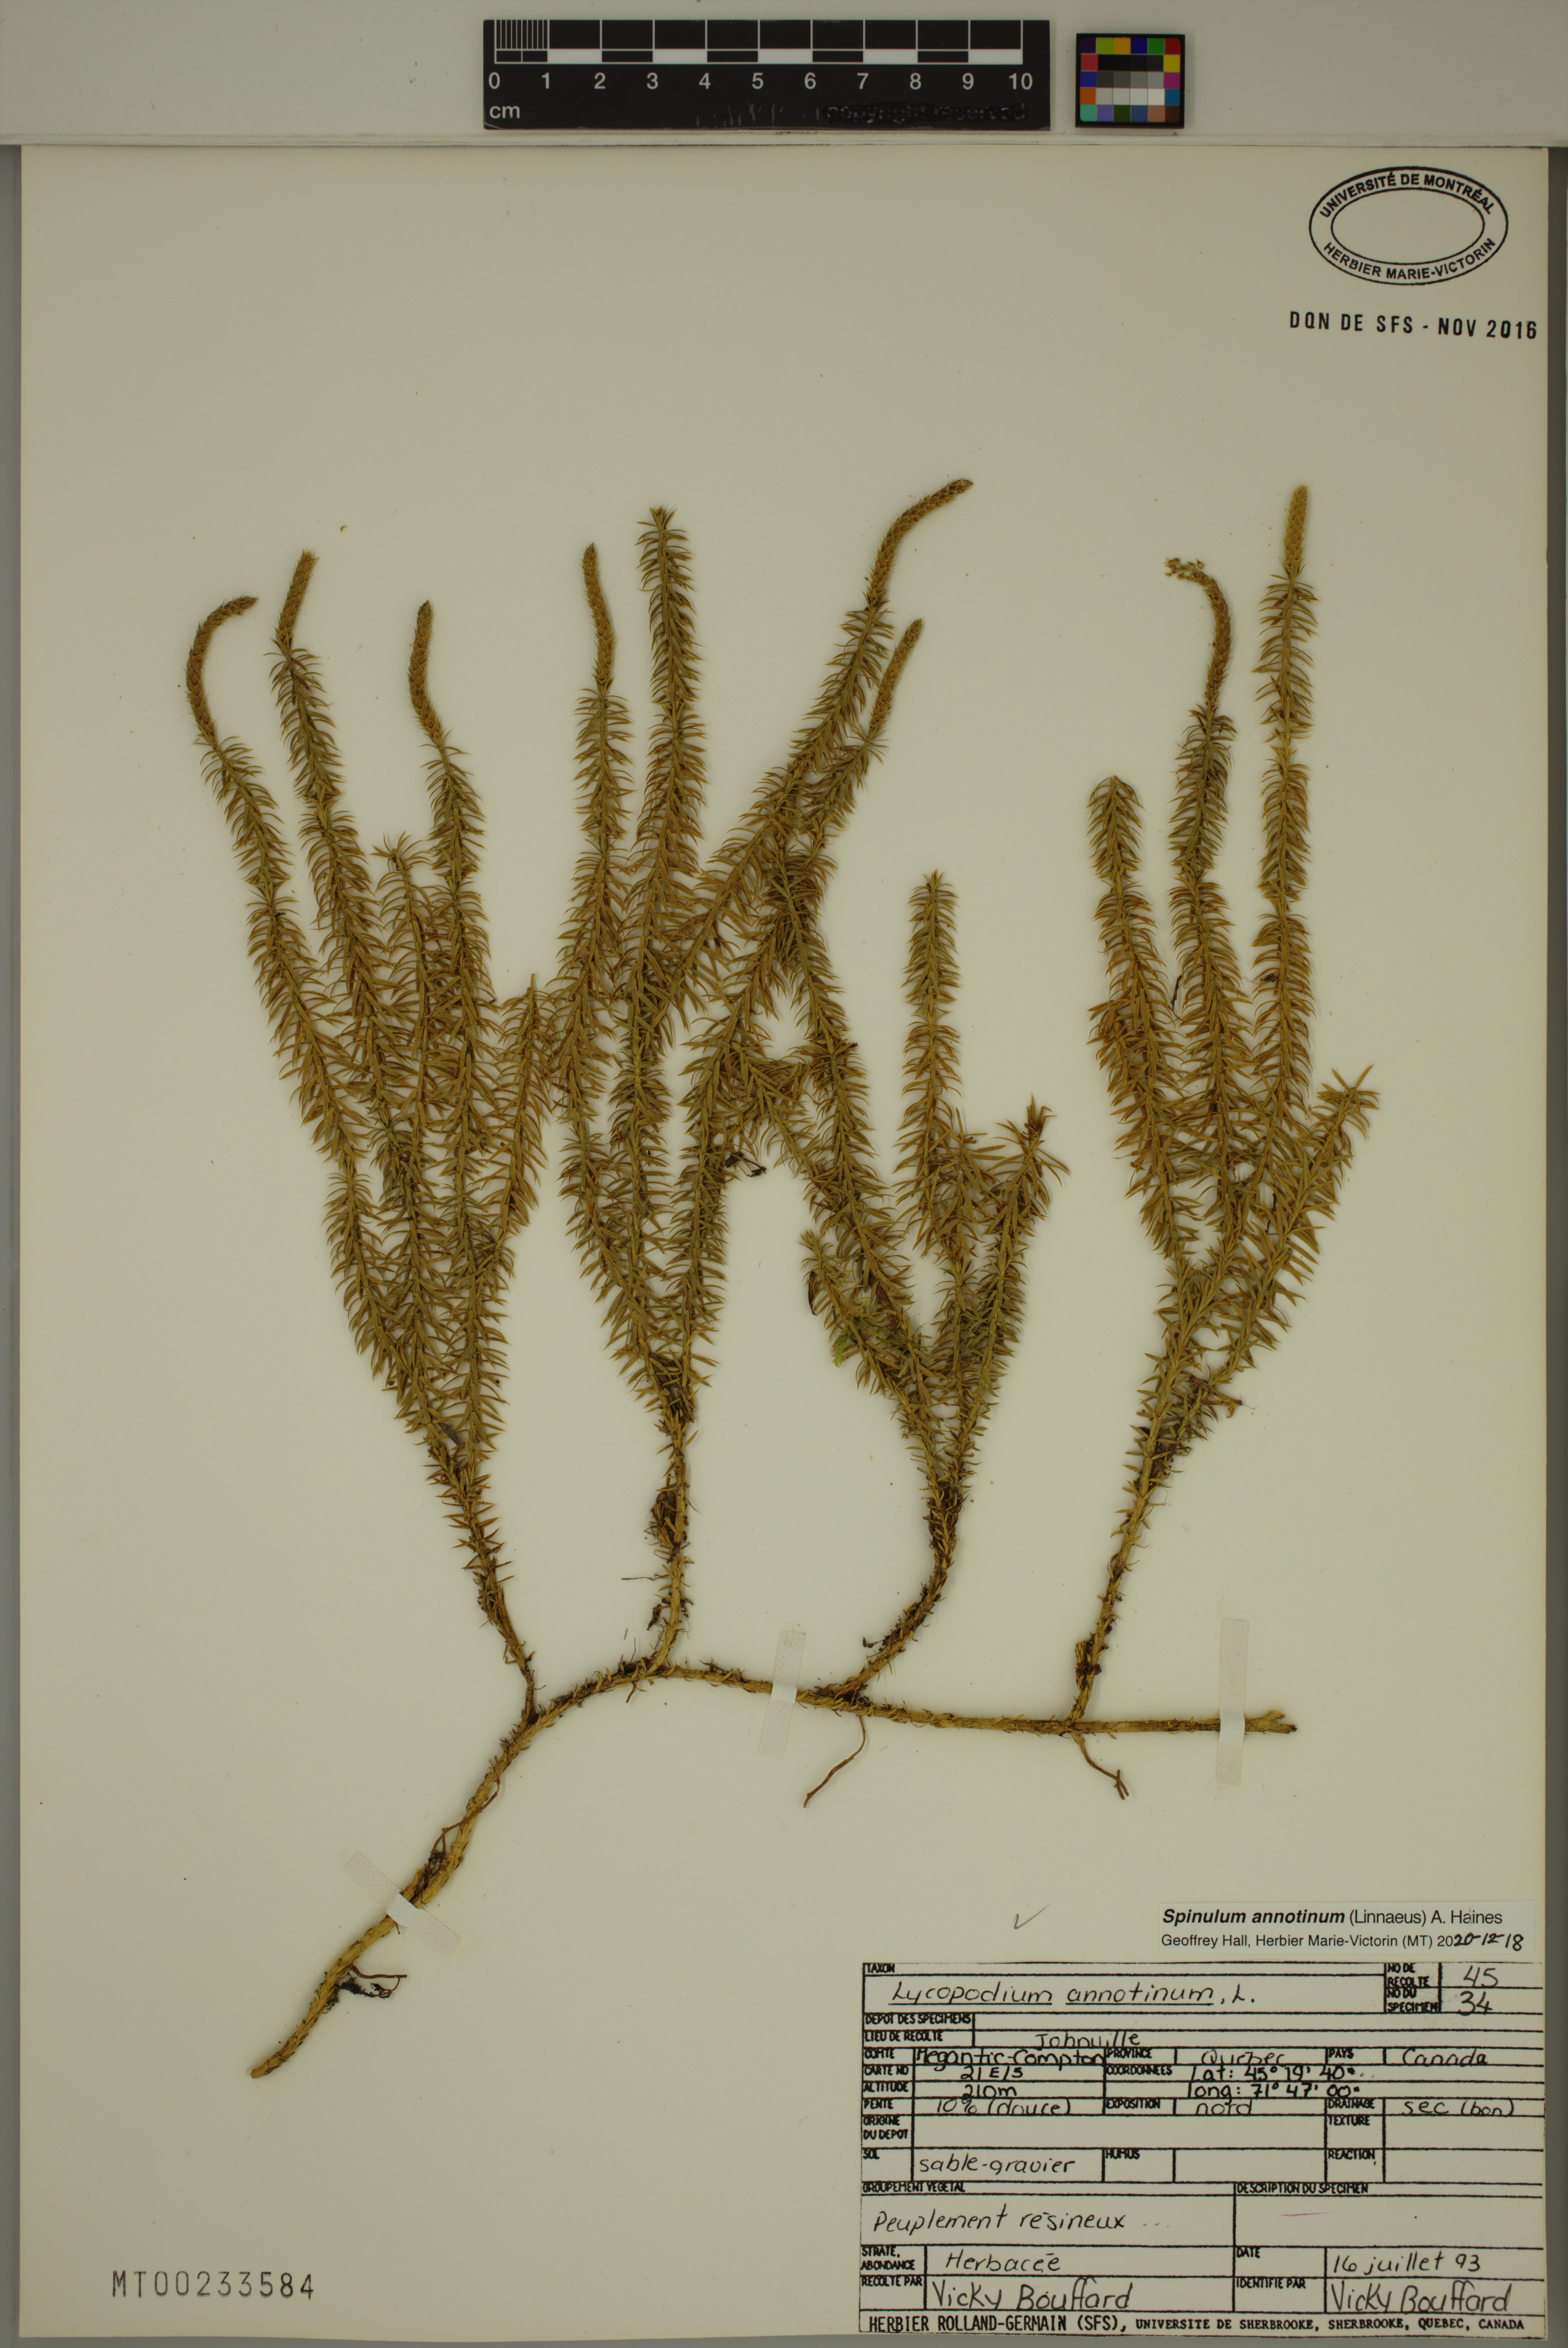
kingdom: Plantae
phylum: Tracheophyta
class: Lycopodiopsida
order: Lycopodiales
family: Lycopodiaceae
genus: Spinulum
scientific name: Spinulum annotinum
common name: Interrupted club-moss
